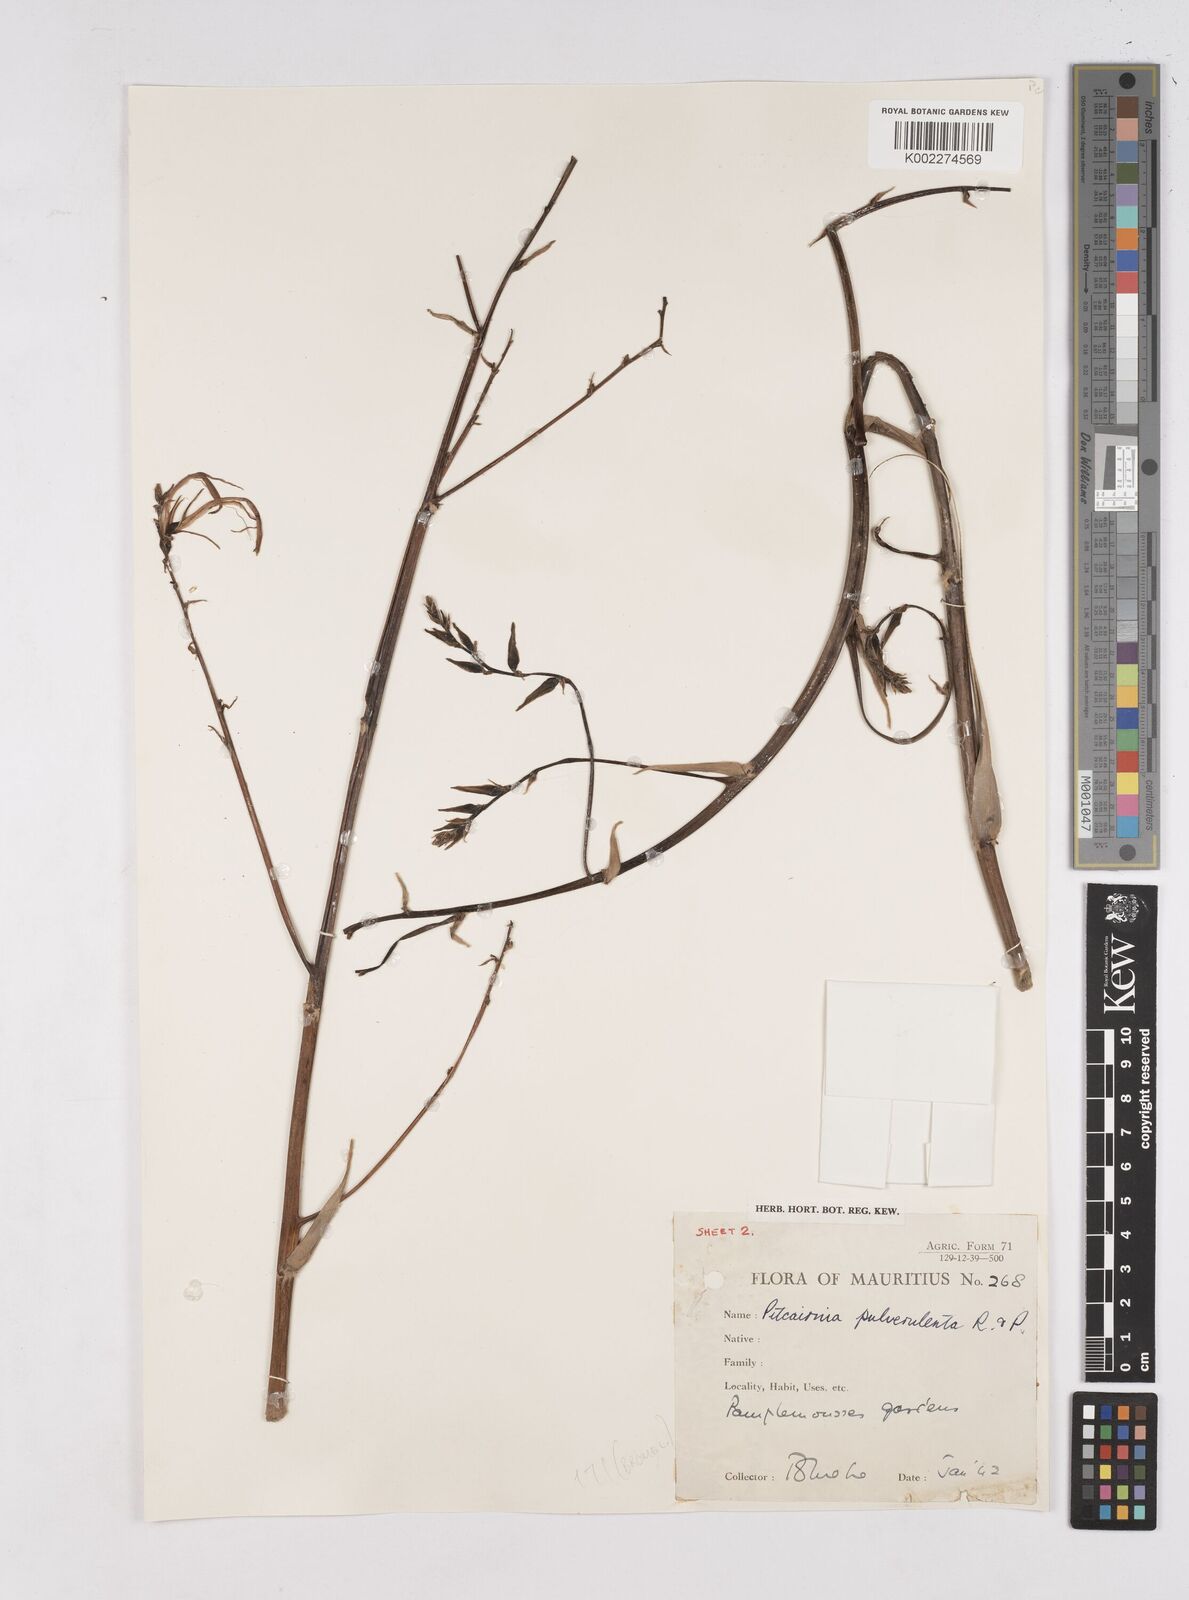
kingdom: Plantae
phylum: Tracheophyta
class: Liliopsida
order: Poales
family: Bromeliaceae
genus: Pitcairnia
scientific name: Pitcairnia pulverulenta
